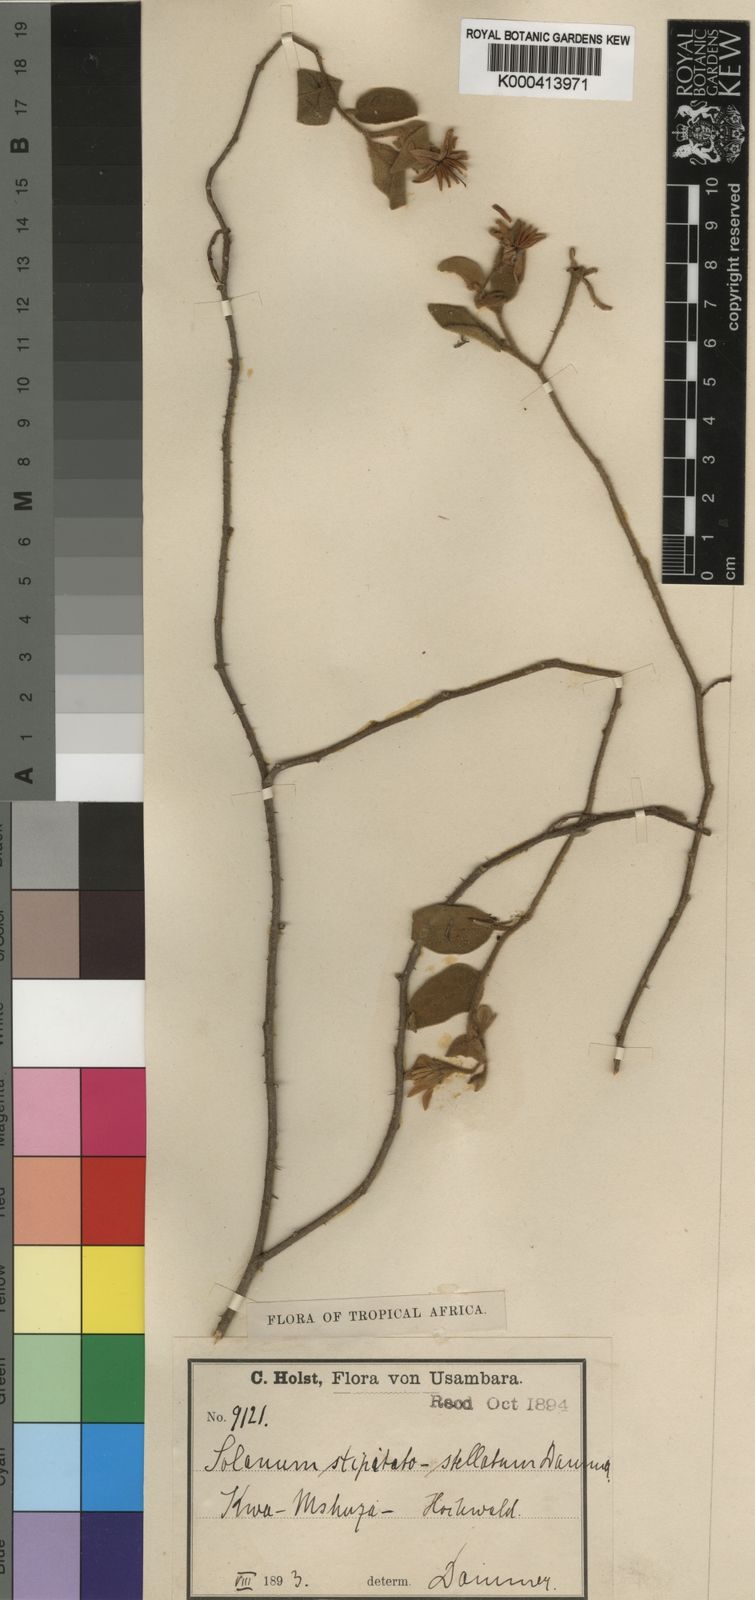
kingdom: Plantae
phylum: Tracheophyta
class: Magnoliopsida
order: Solanales
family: Solanaceae
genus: Solanum
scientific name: Solanum stipitatostellatum
